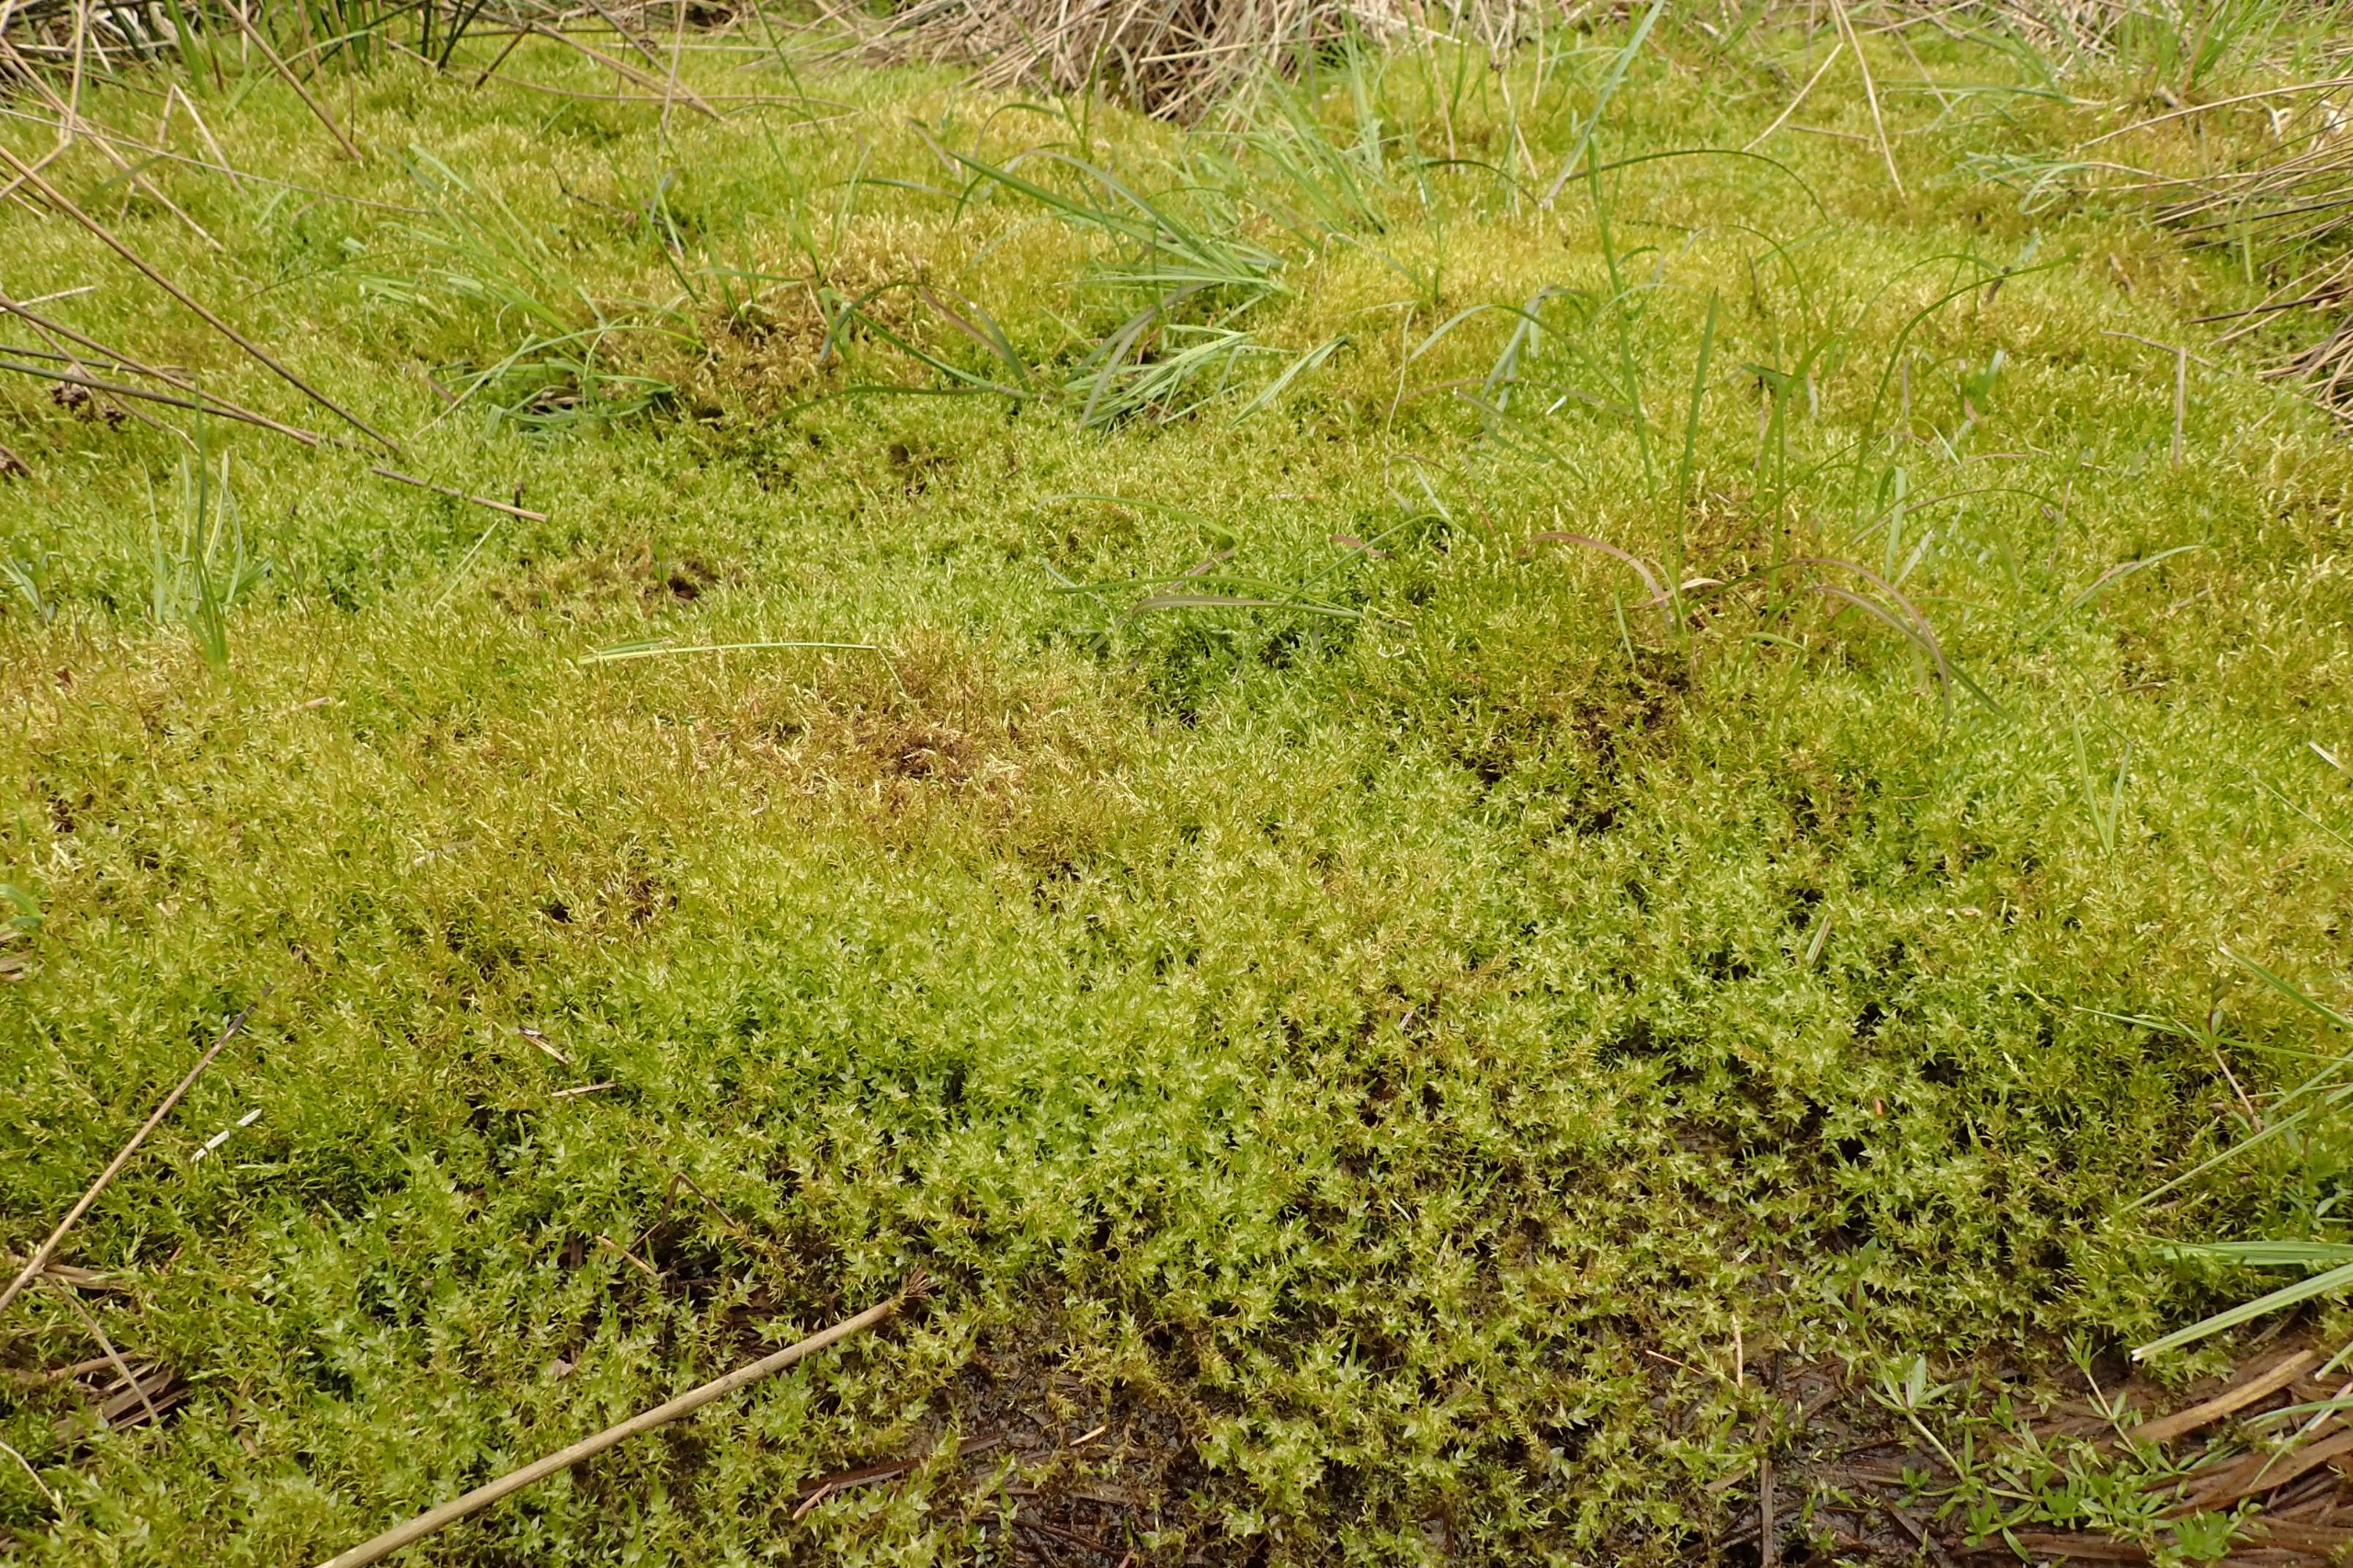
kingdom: Plantae
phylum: Bryophyta
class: Bryopsida
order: Hypnales
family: Calliergonaceae
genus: Calliergon
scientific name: Calliergon cordifolium
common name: Almindelig skebladsmos
